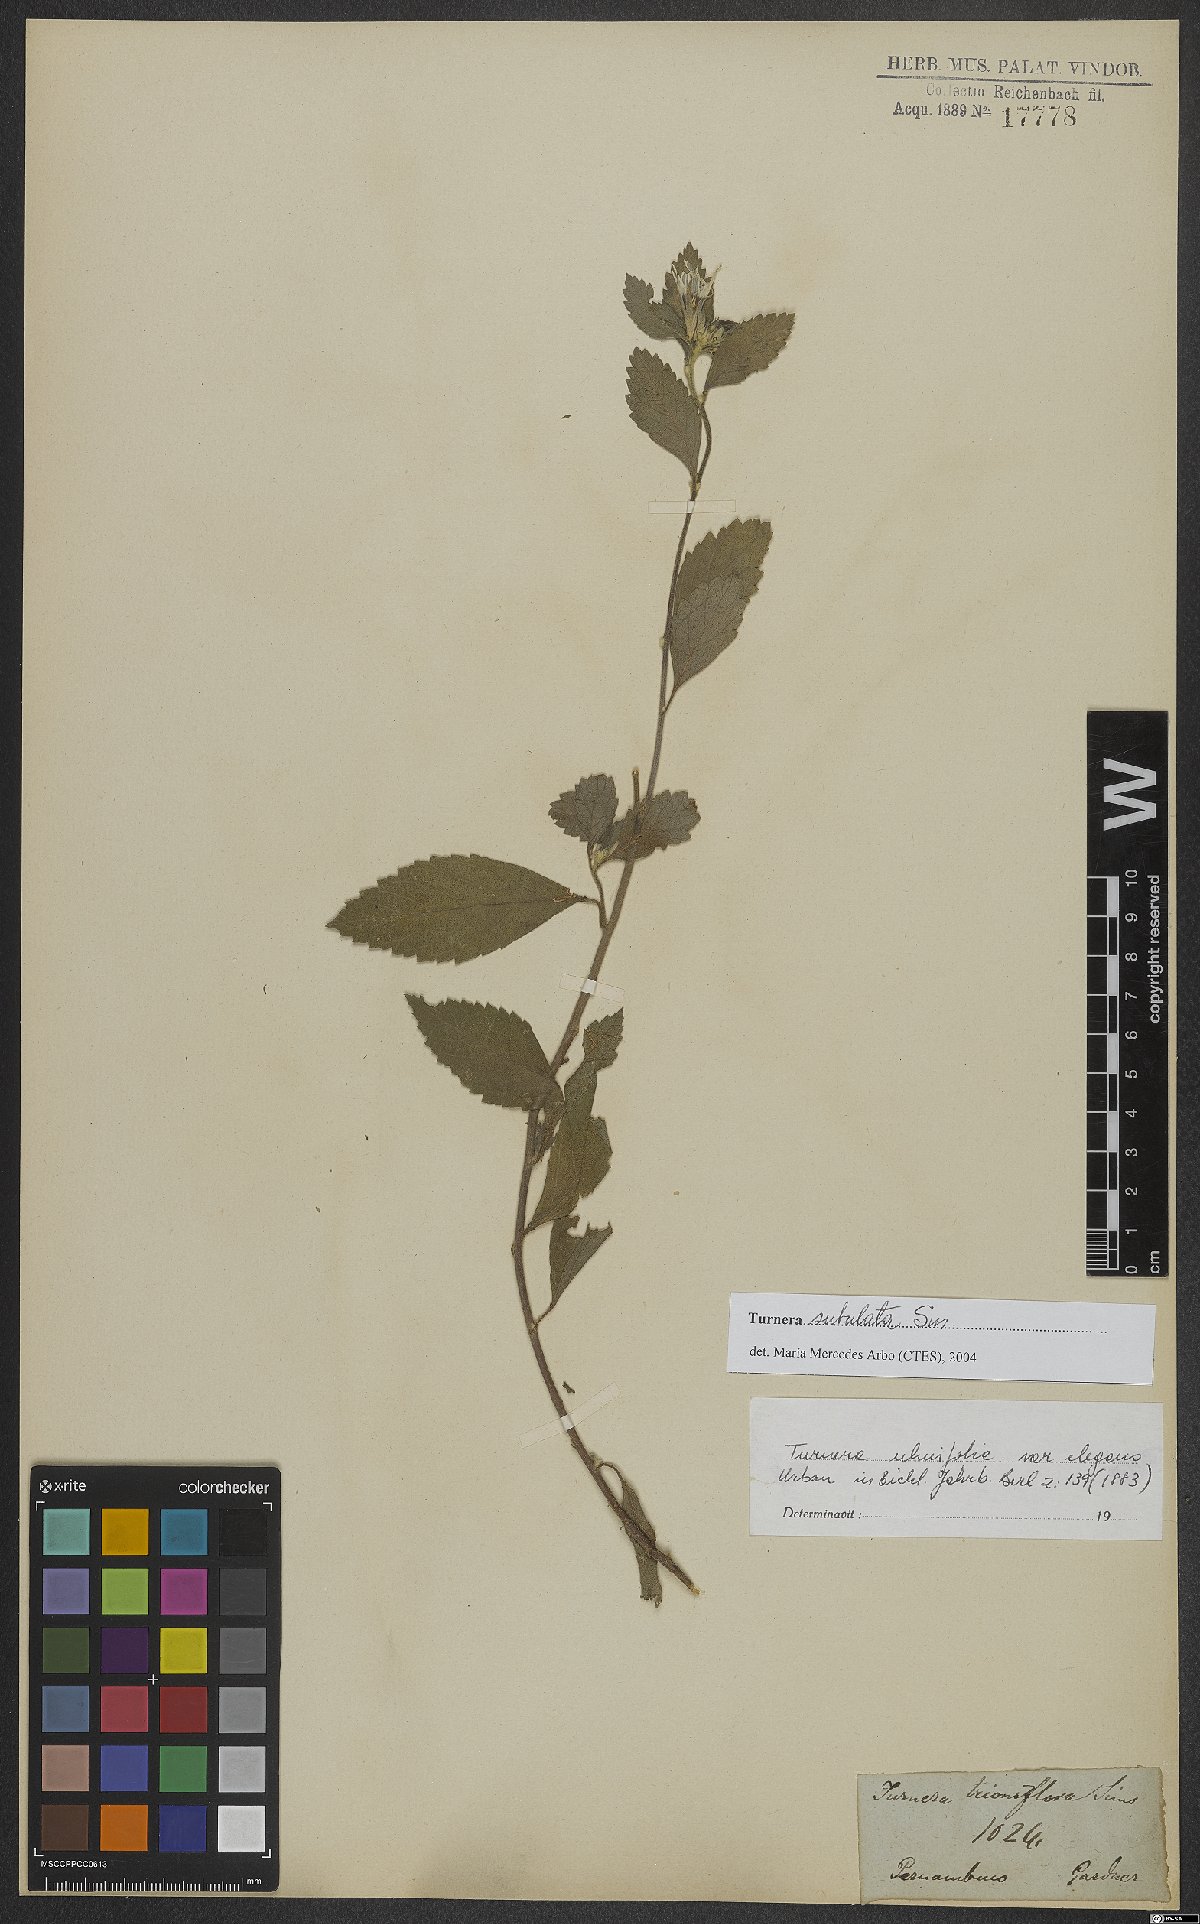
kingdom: Plantae
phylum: Tracheophyta
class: Magnoliopsida
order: Malpighiales
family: Turneraceae
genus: Turnera
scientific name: Turnera subulata
